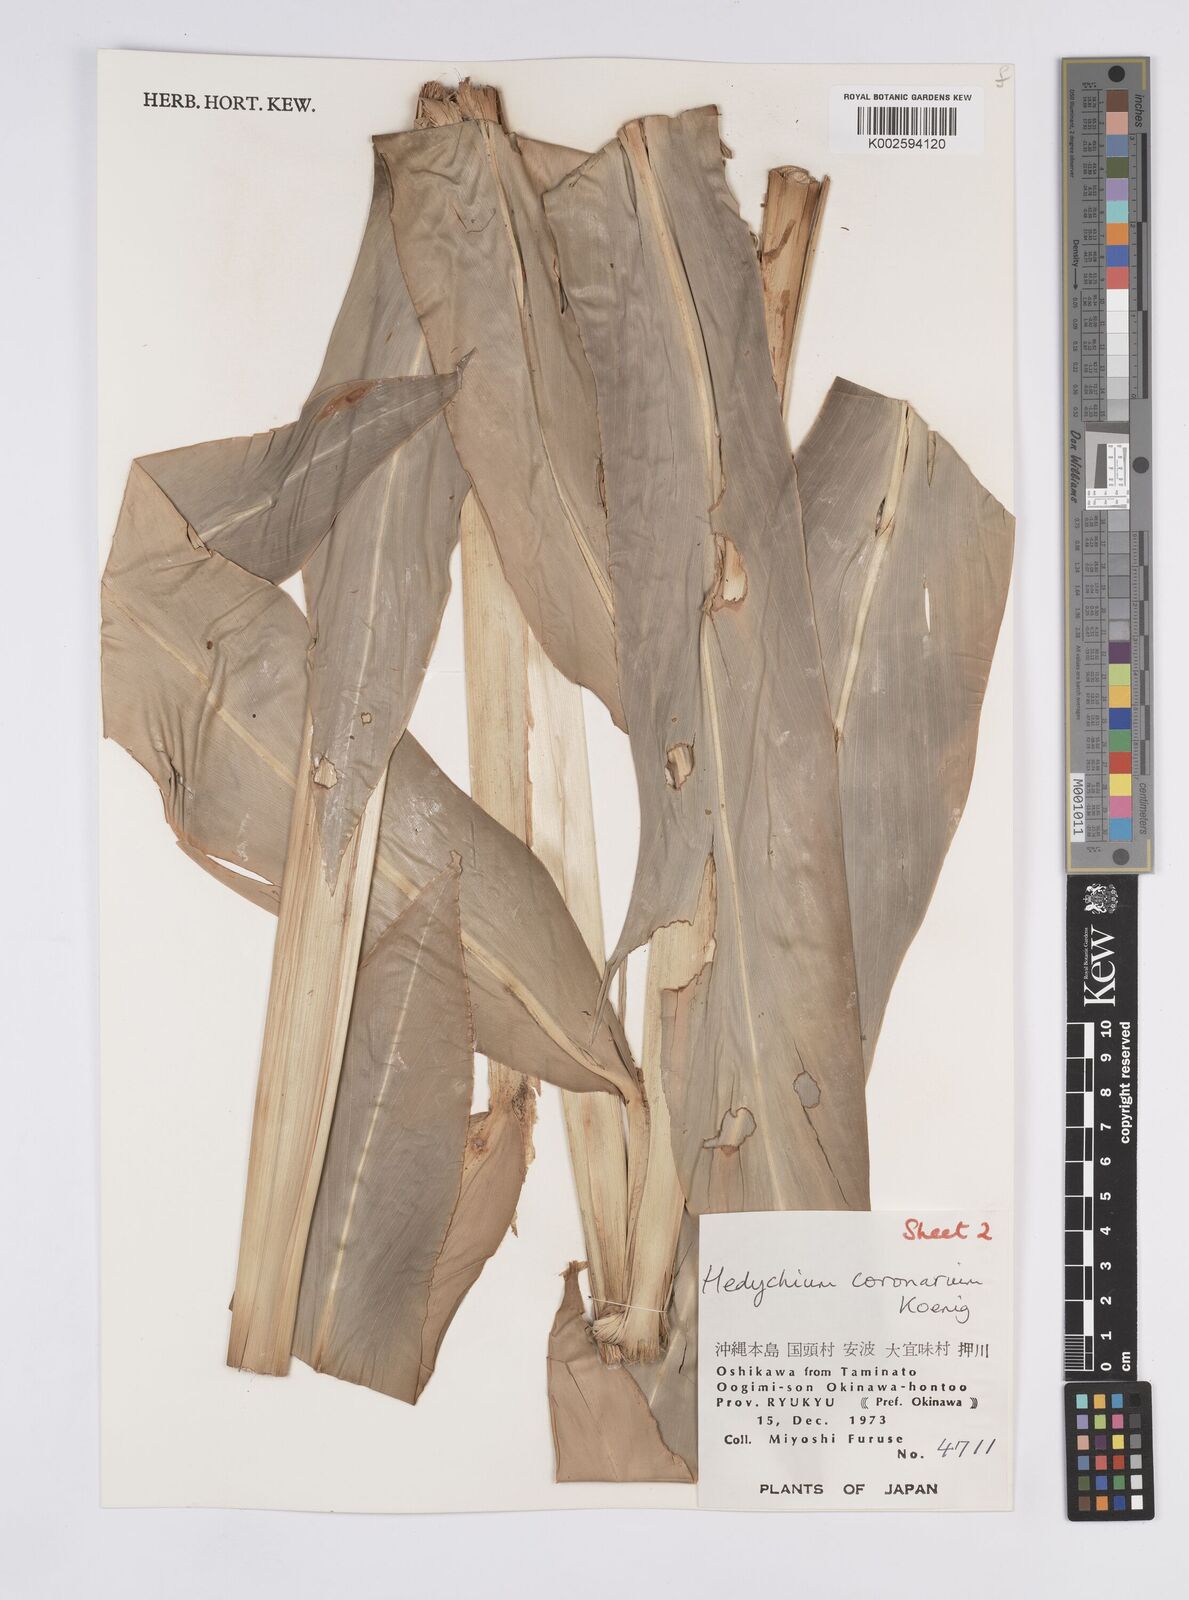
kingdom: Plantae
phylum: Tracheophyta
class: Liliopsida
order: Zingiberales
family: Zingiberaceae
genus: Hedychium
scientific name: Hedychium coronarium
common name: White garland-lily
